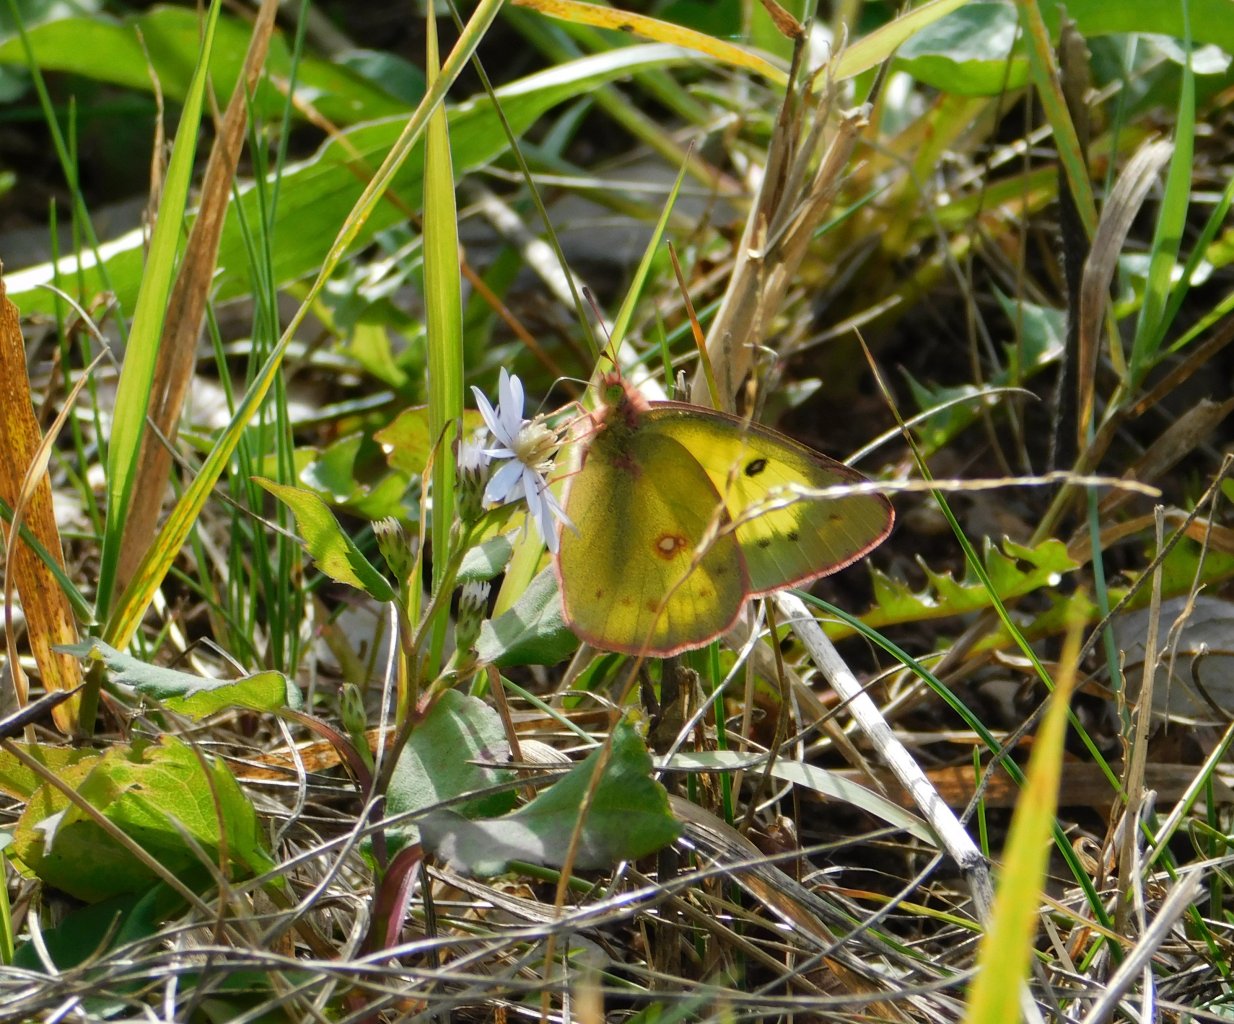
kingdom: Animalia
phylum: Arthropoda
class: Insecta
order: Lepidoptera
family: Pieridae
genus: Colias
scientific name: Colias philodice
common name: Clouded Sulphur
